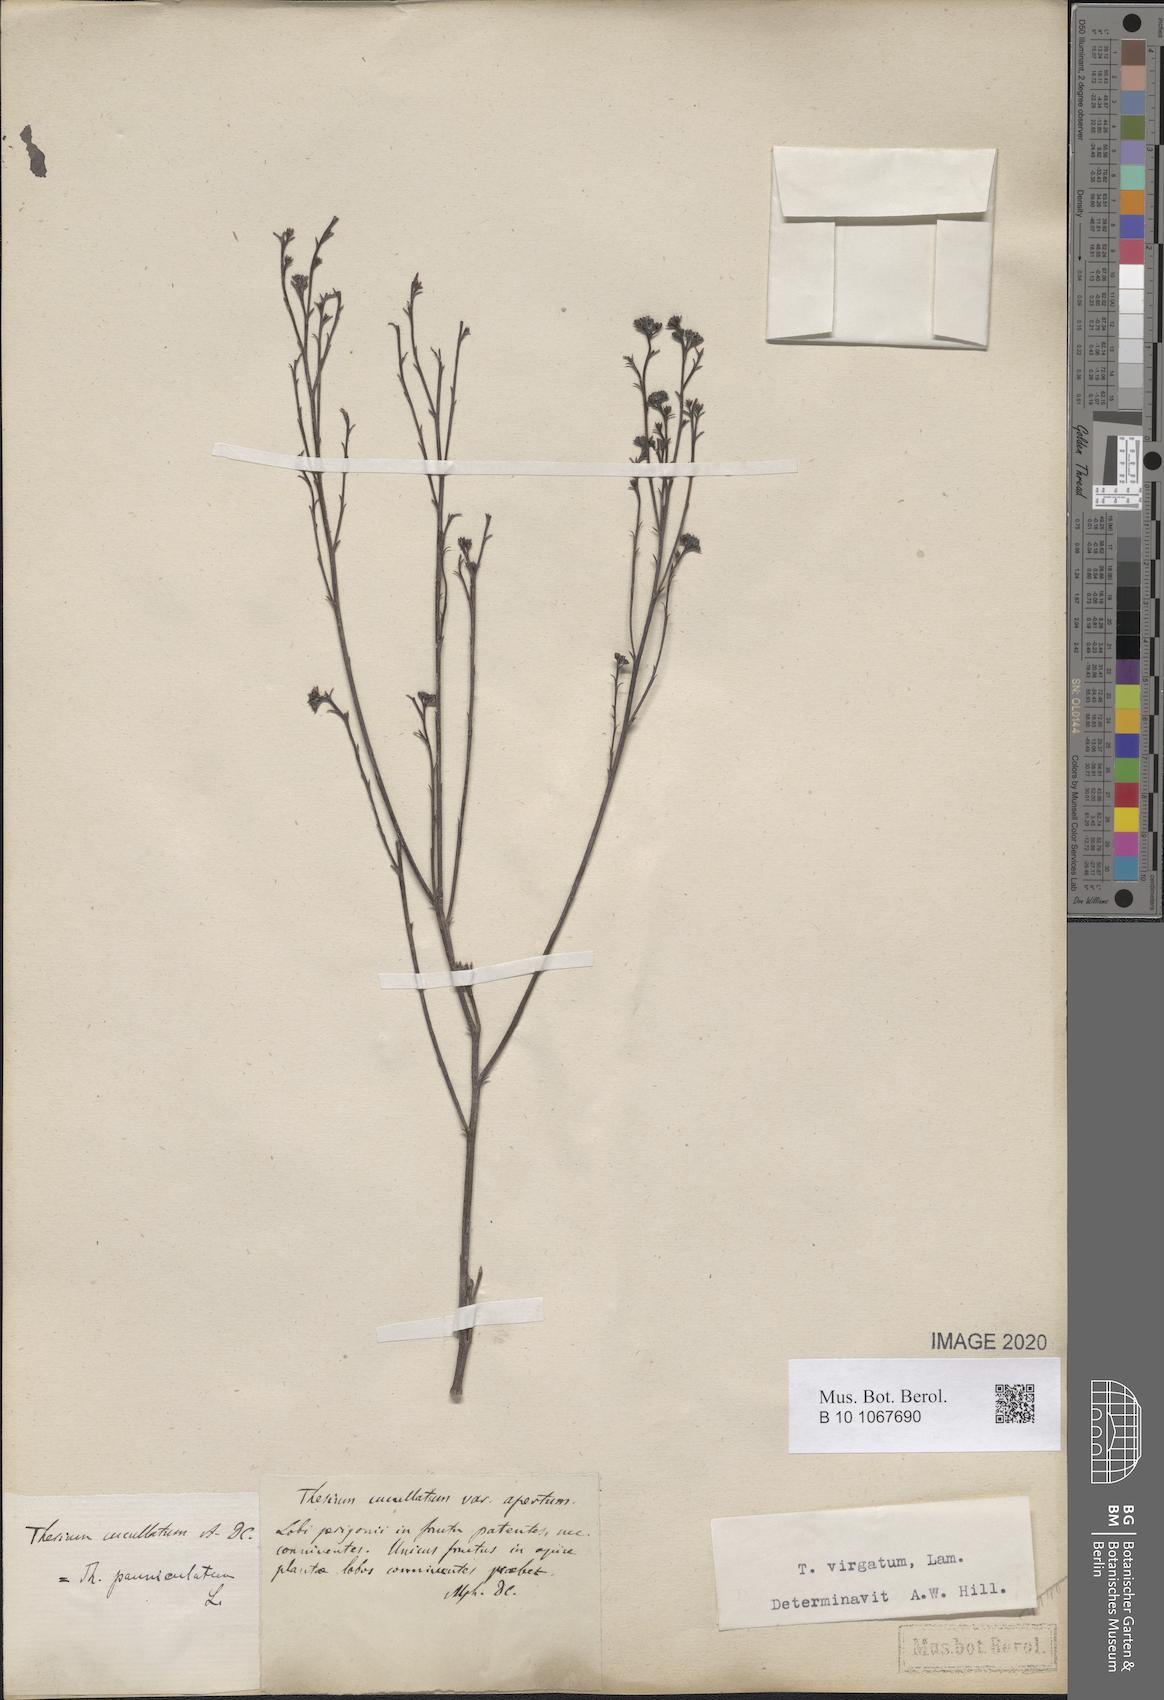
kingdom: Plantae
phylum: Tracheophyta
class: Magnoliopsida
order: Santalales
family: Thesiaceae
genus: Thesium
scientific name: Thesium virgatum
